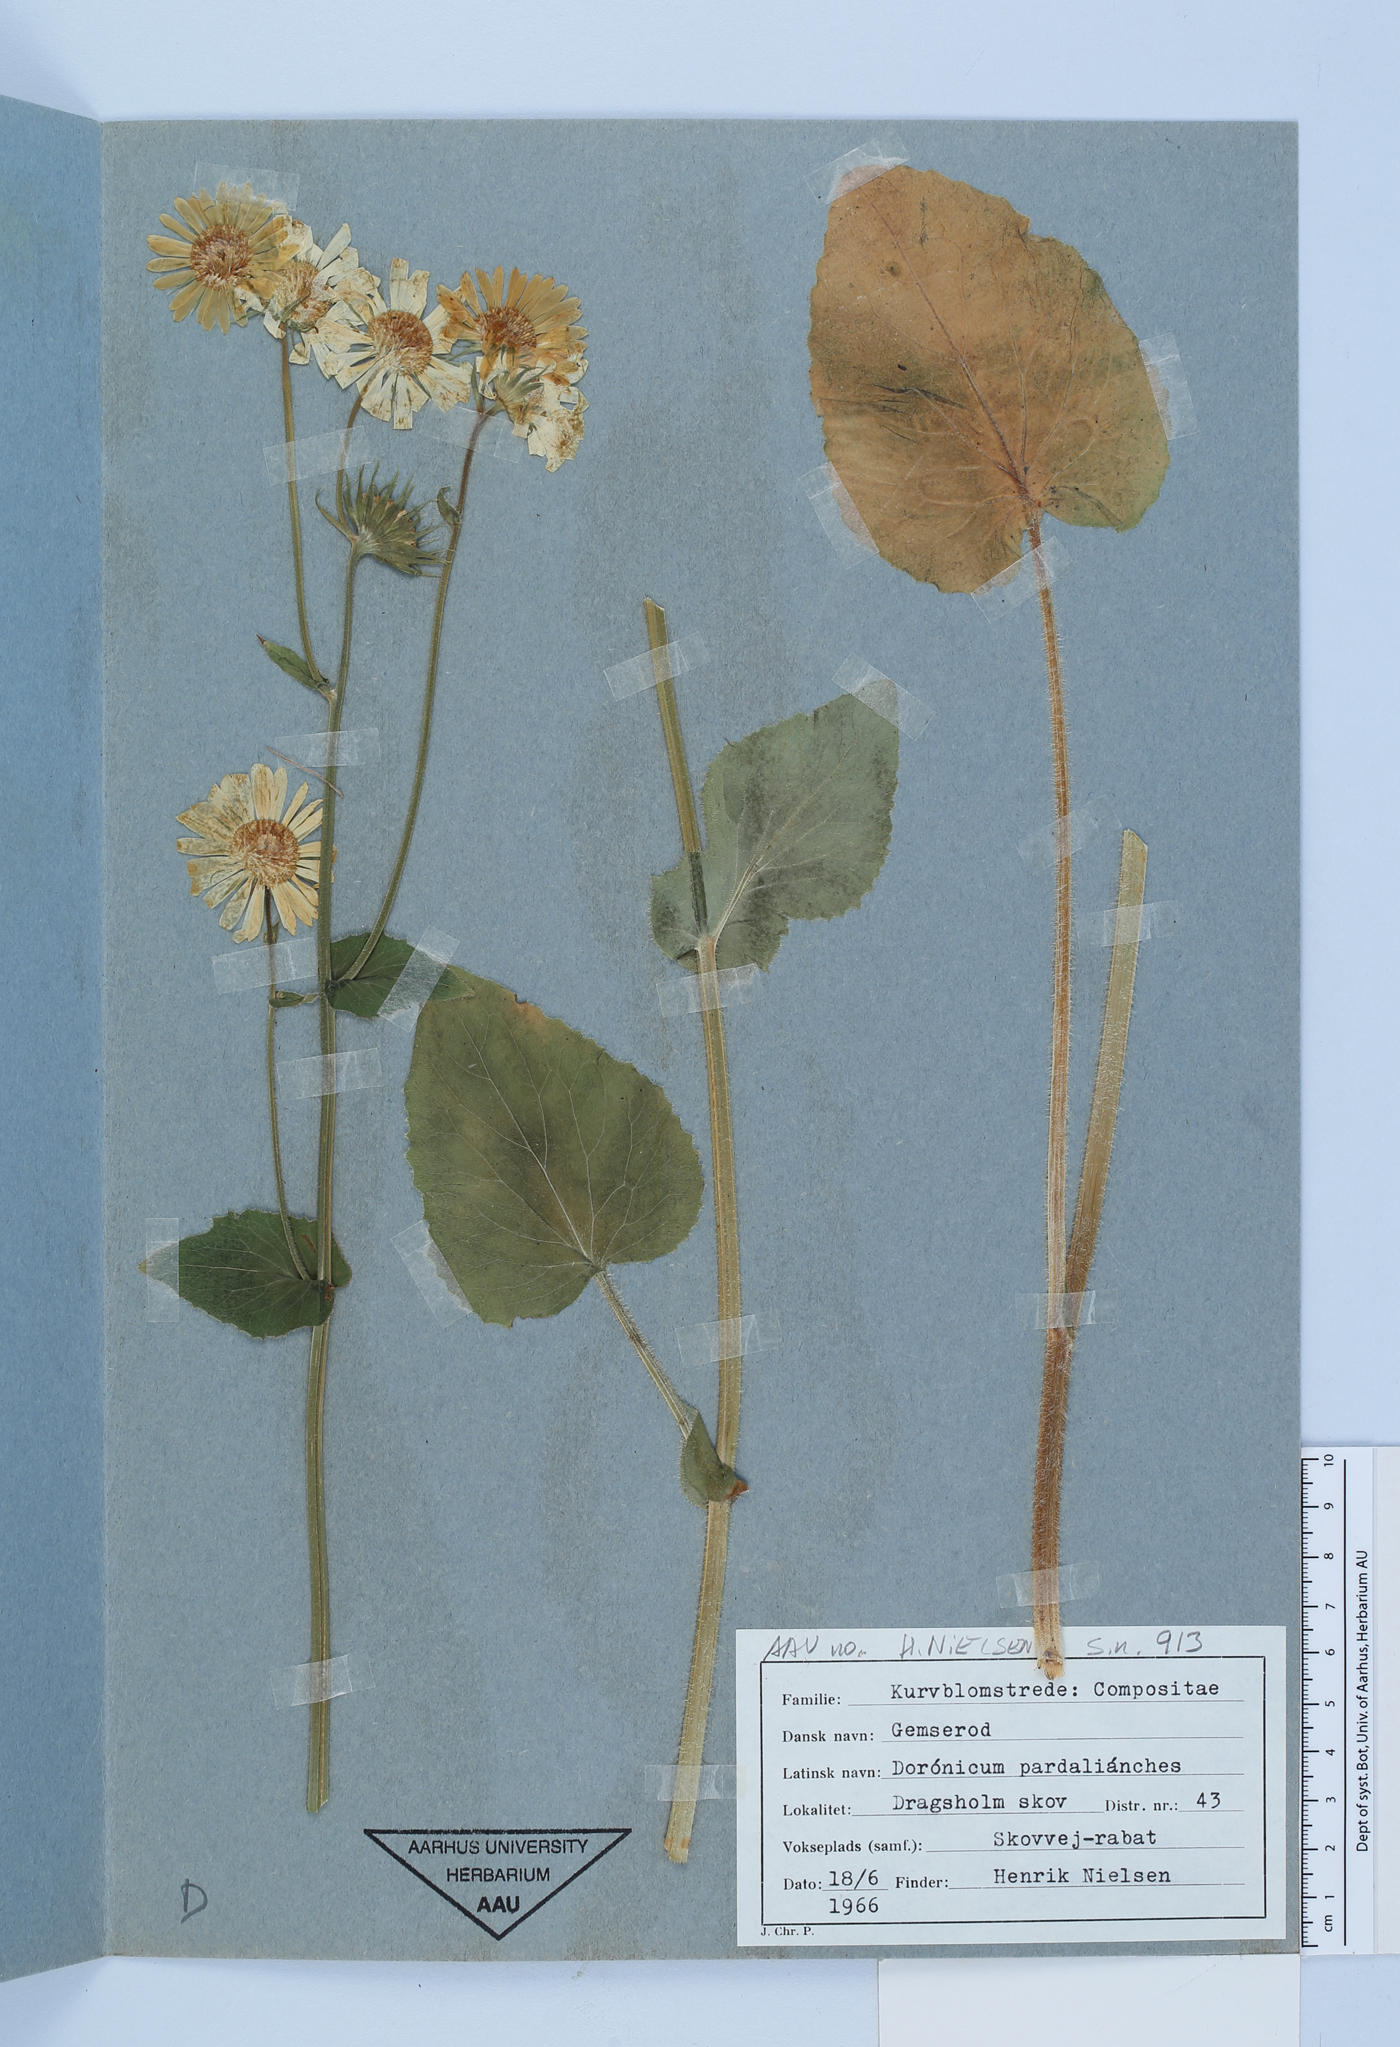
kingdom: Plantae
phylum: Tracheophyta
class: Magnoliopsida
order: Asterales
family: Asteraceae
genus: Doronicum
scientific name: Doronicum pardalianches
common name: Leopard's-bane
